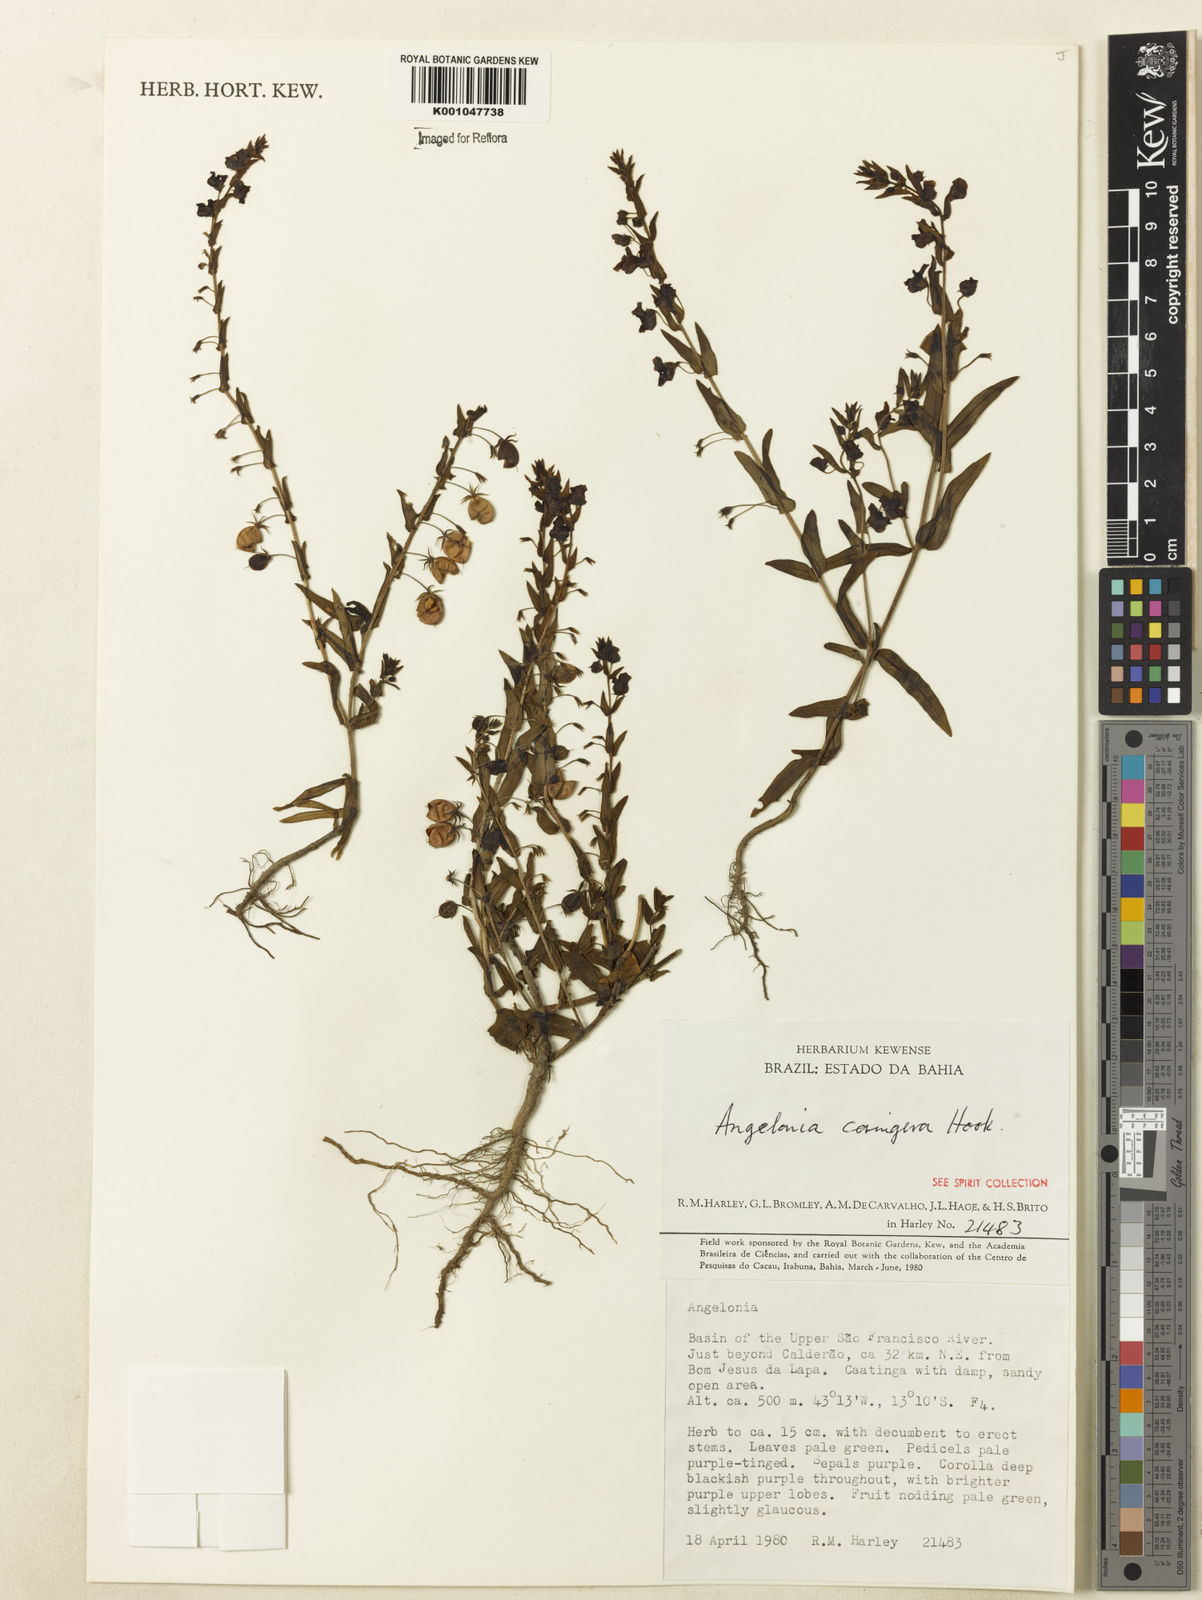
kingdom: Plantae
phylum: Tracheophyta
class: Magnoliopsida
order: Lamiales
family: Plantaginaceae
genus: Angelonia
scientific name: Angelonia cornigera
